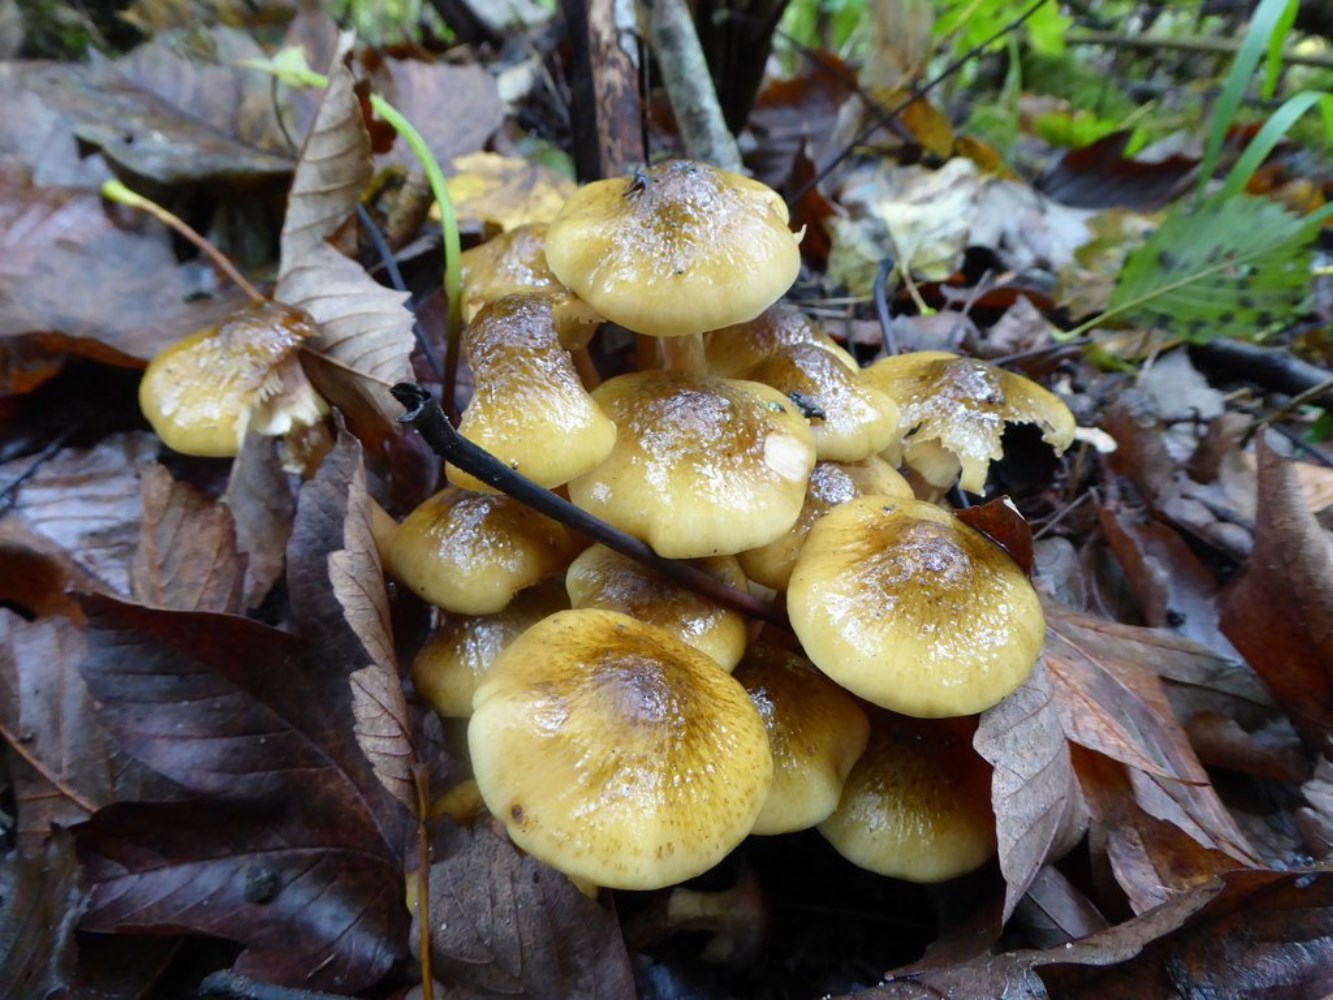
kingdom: Fungi
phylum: Basidiomycota
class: Agaricomycetes
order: Agaricales
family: Physalacriaceae
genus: Armillaria
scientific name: Armillaria mellea
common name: ægte honningsvamp
